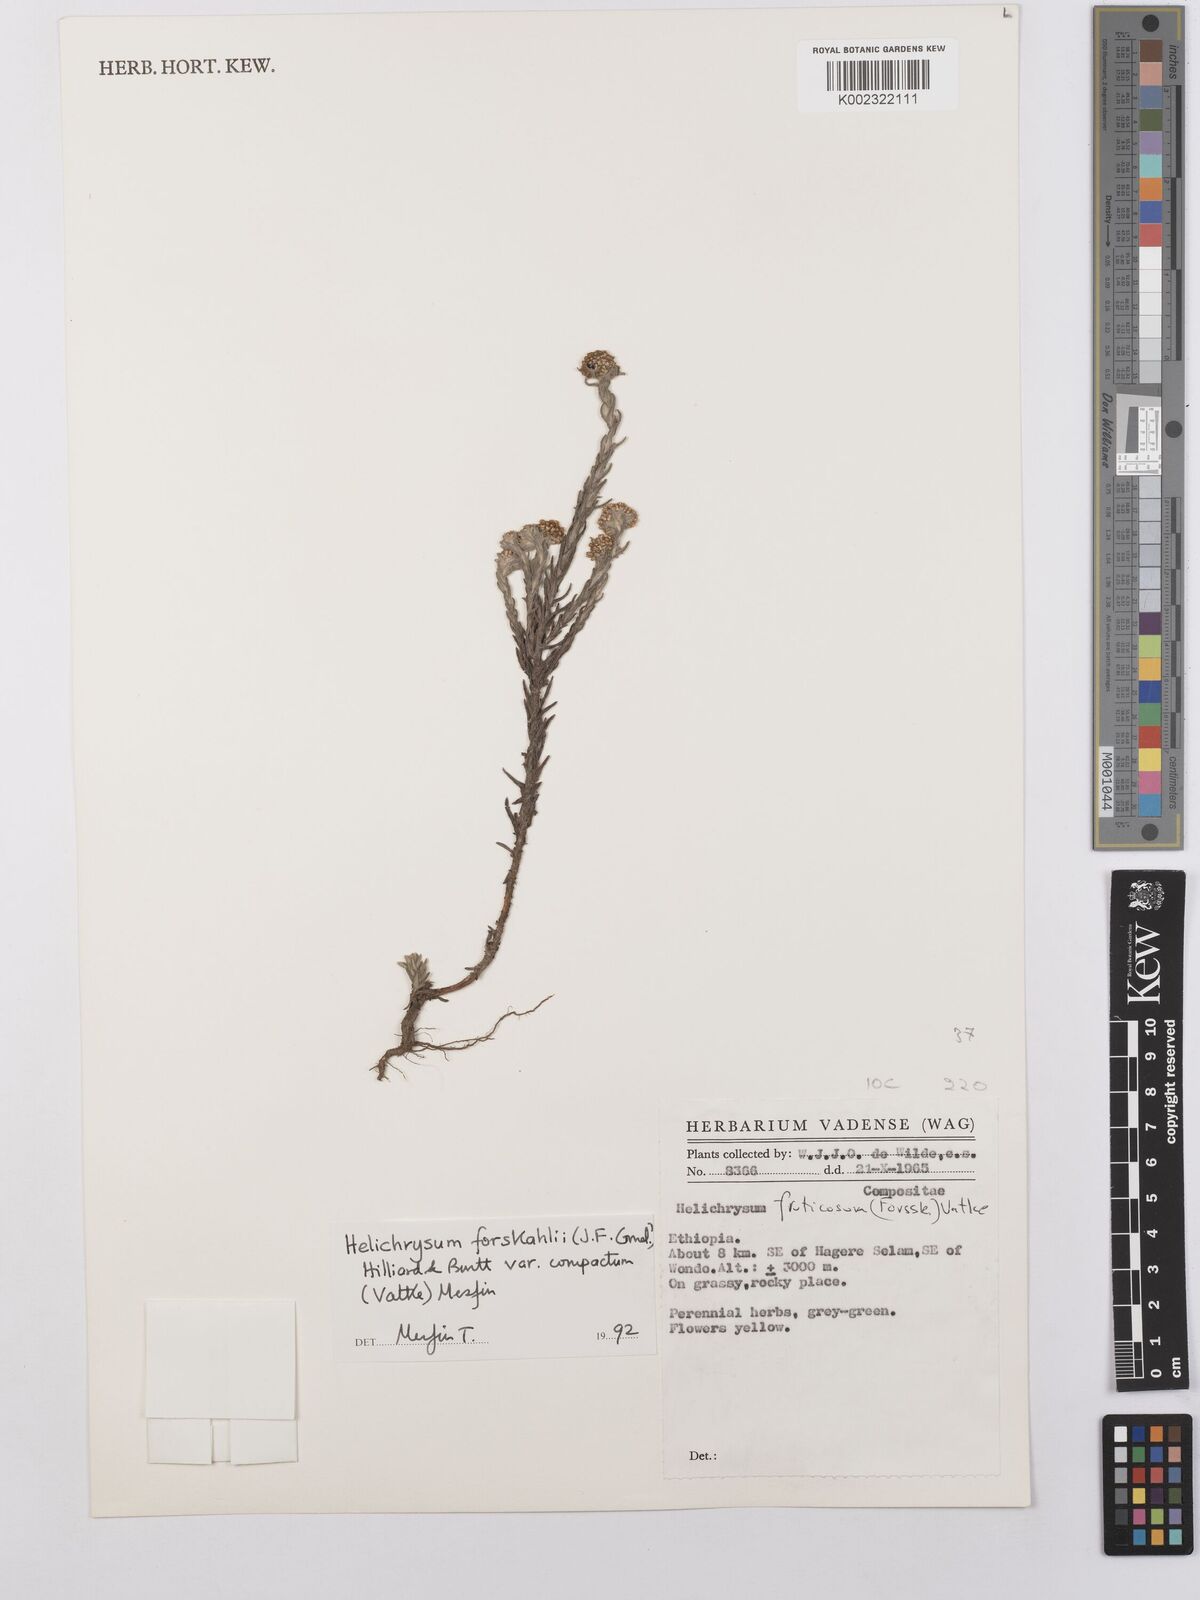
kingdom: Plantae
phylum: Tracheophyta
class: Magnoliopsida
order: Asterales
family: Asteraceae
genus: Helichrysum
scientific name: Helichrysum forskahlii
